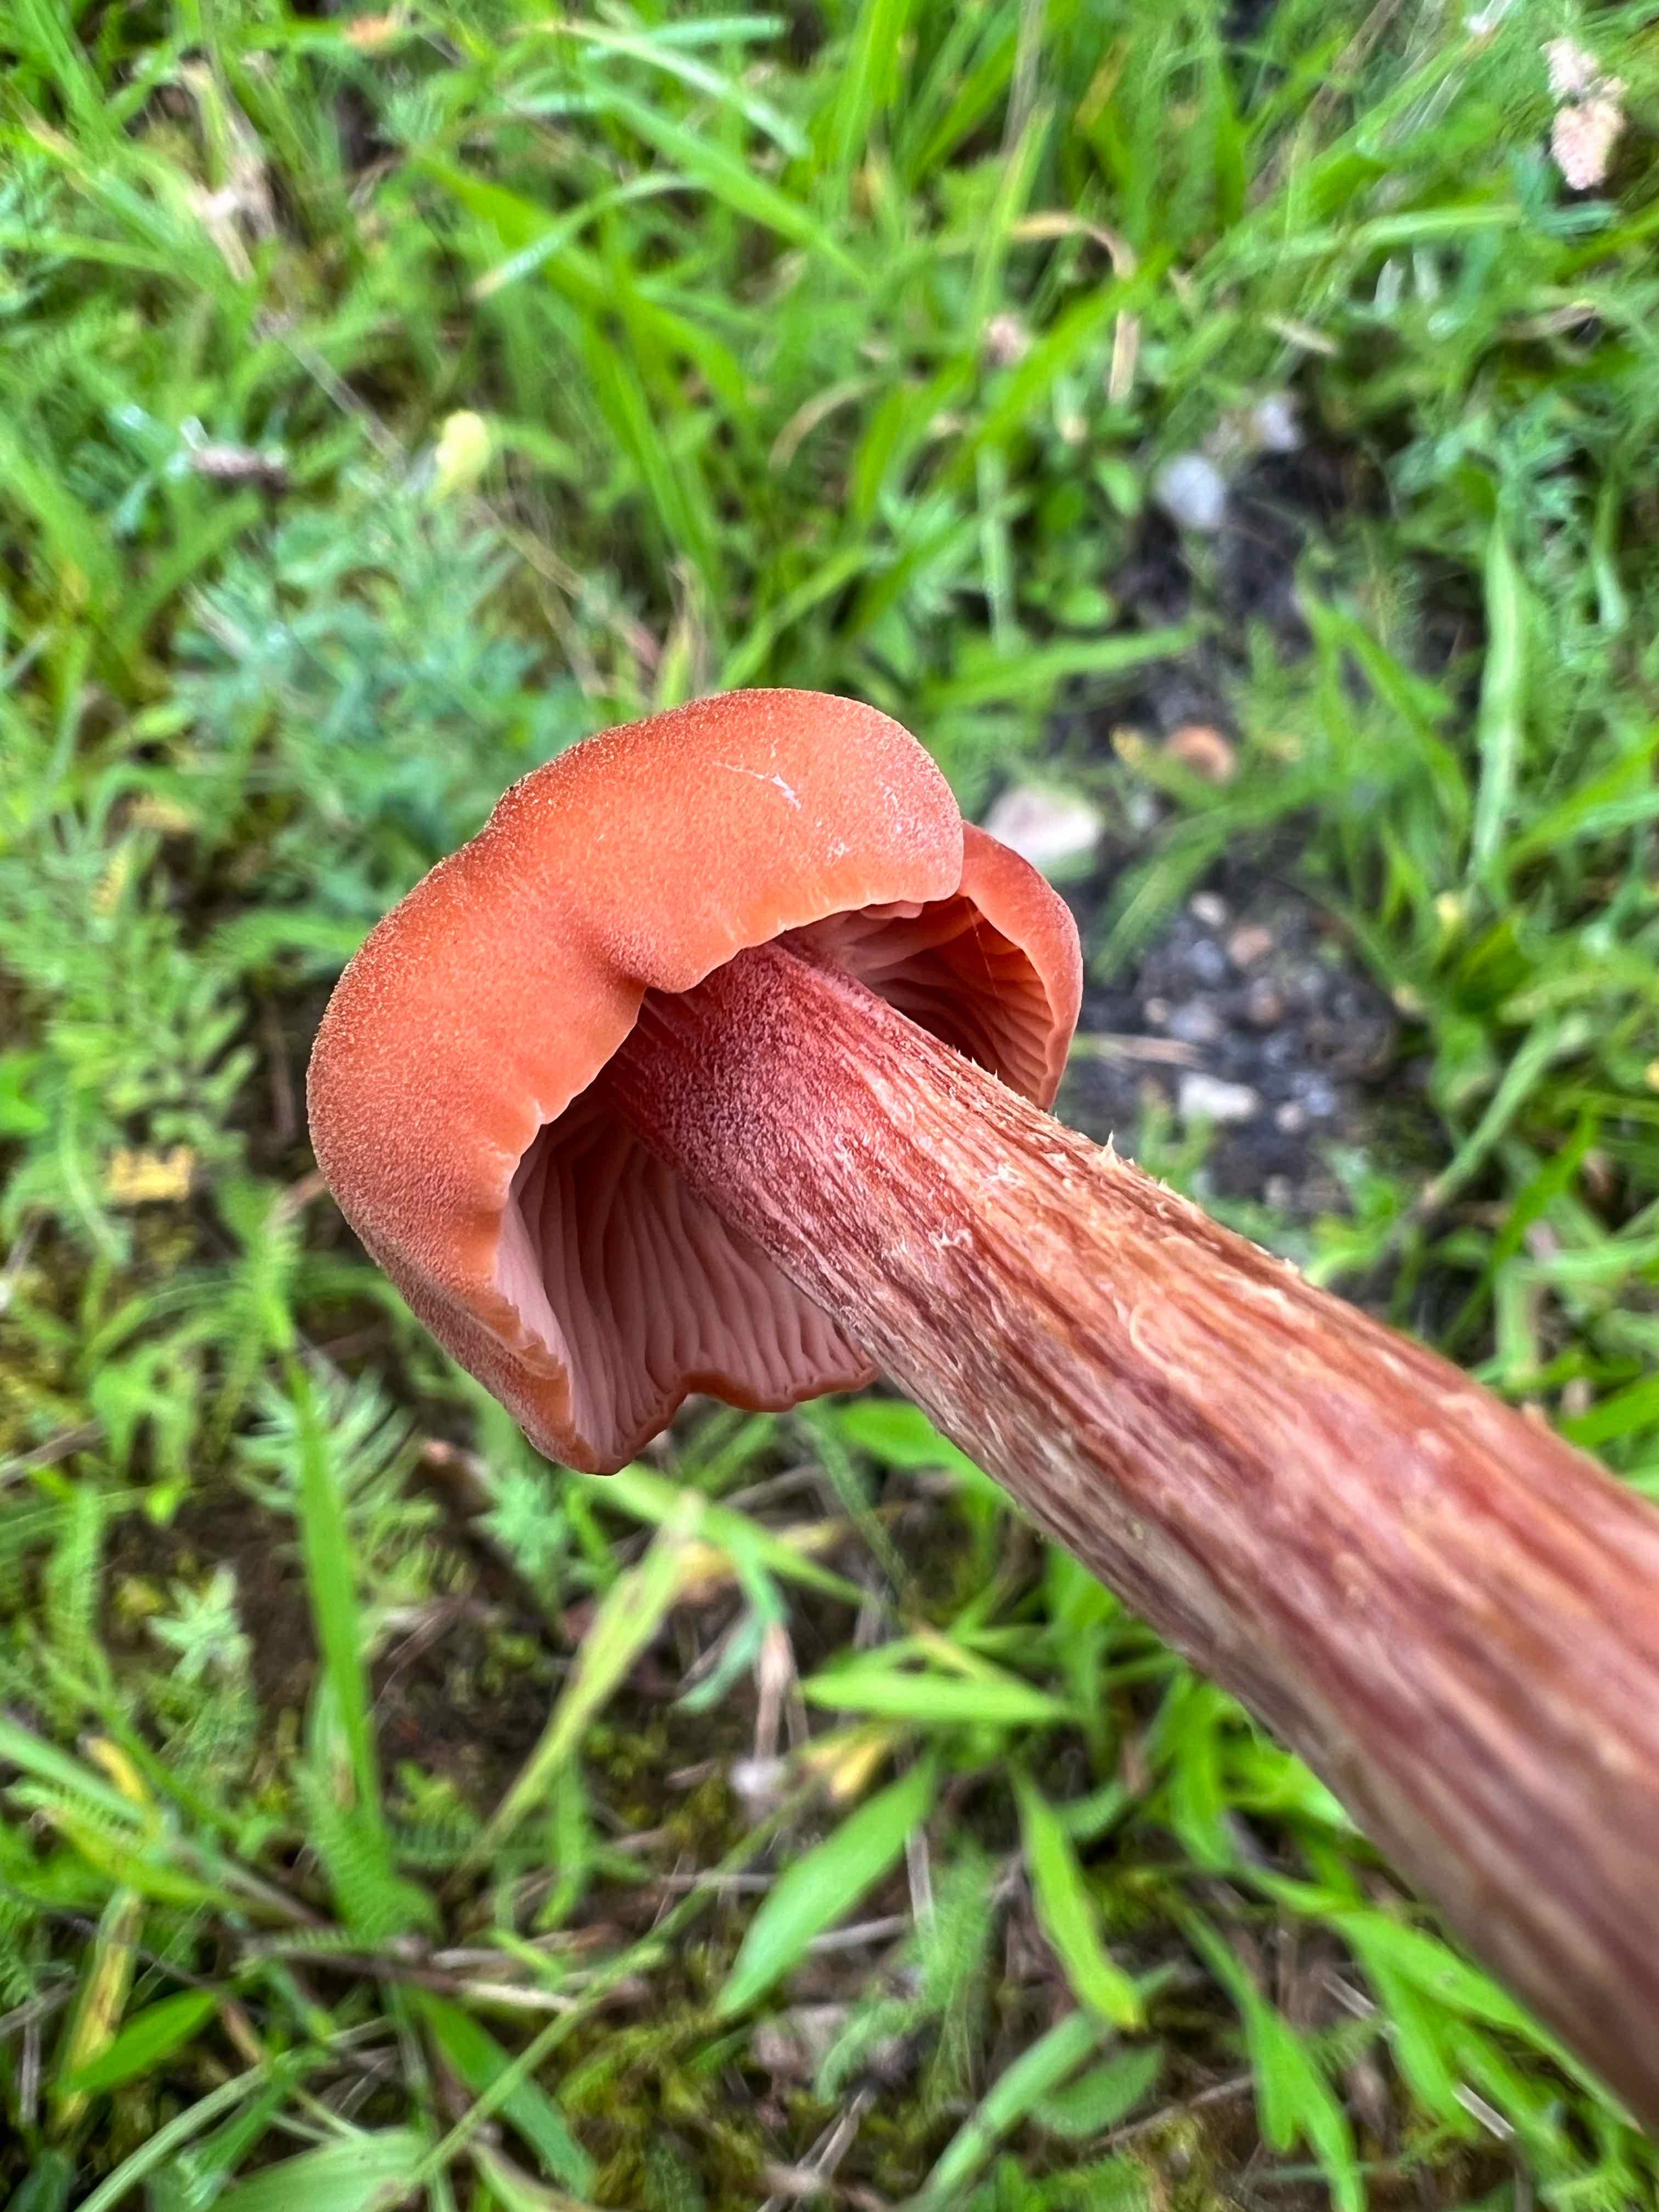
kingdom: Fungi
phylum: Basidiomycota
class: Agaricomycetes
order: Agaricales
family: Hydnangiaceae
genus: Laccaria
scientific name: Laccaria proxima
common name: stor ametysthat
